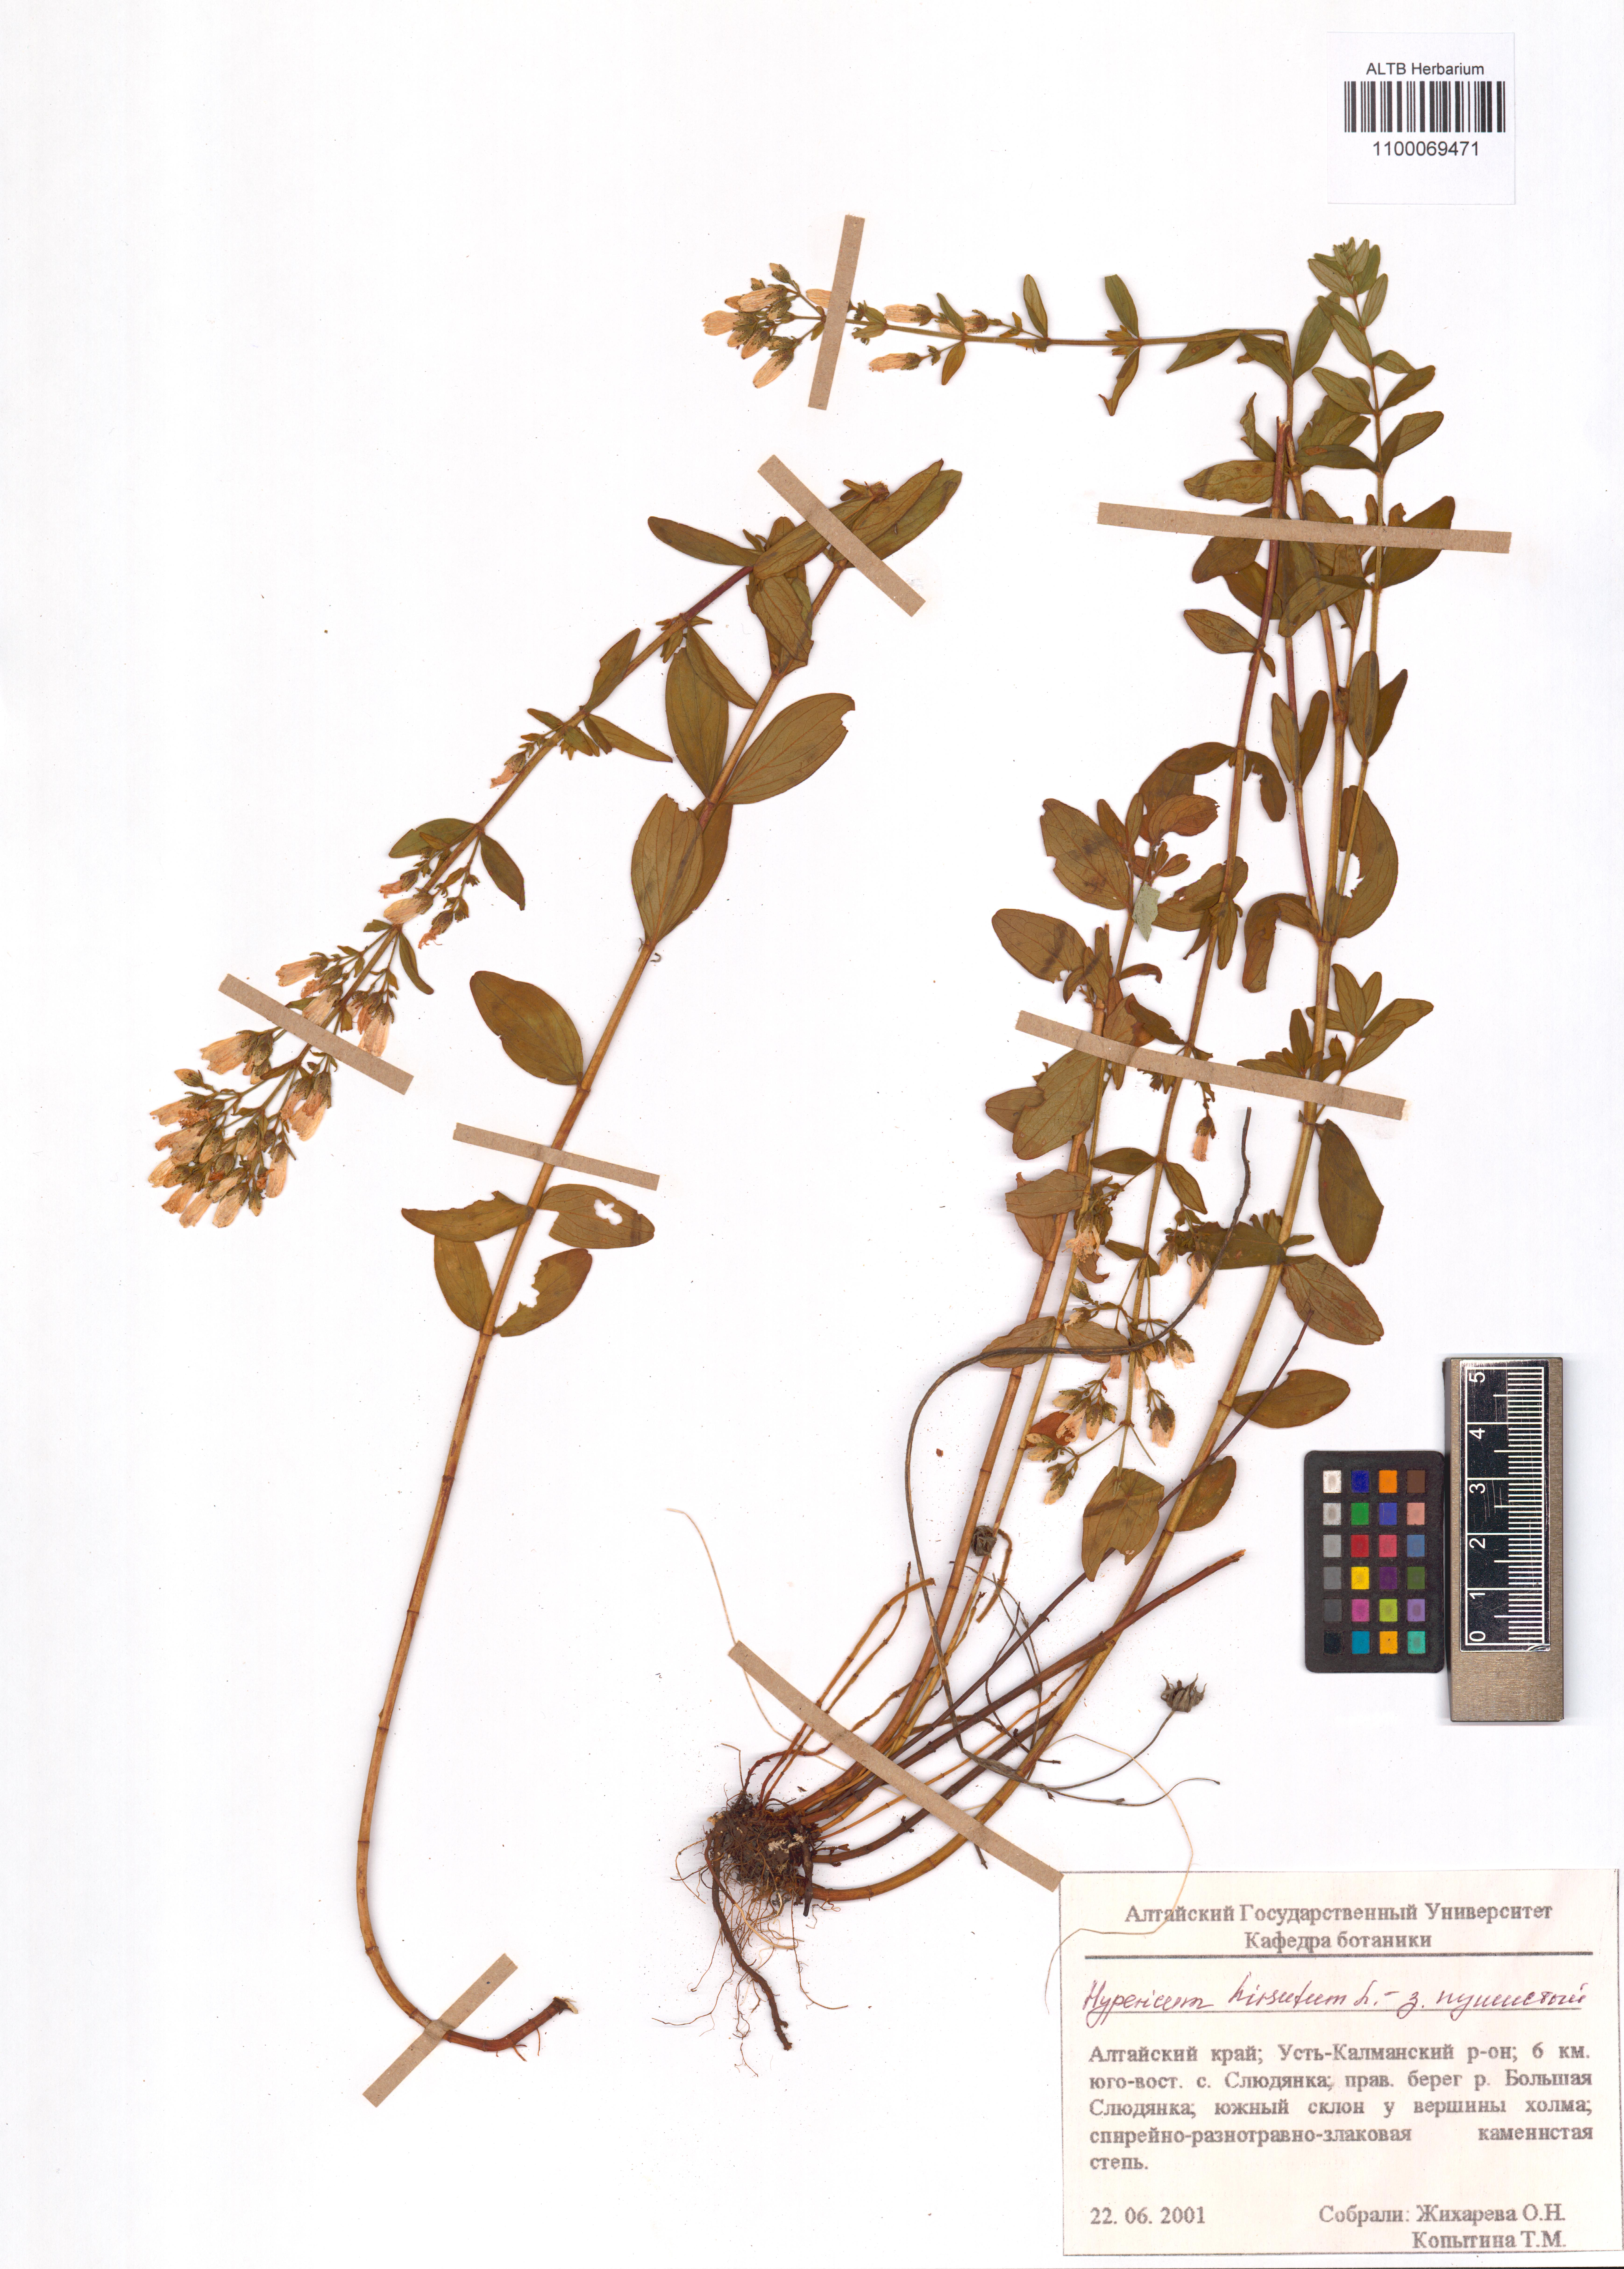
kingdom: Plantae
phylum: Tracheophyta
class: Magnoliopsida
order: Malpighiales
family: Hypericaceae
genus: Hypericum
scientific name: Hypericum hirsutum
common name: Hairy st. john's-wort
